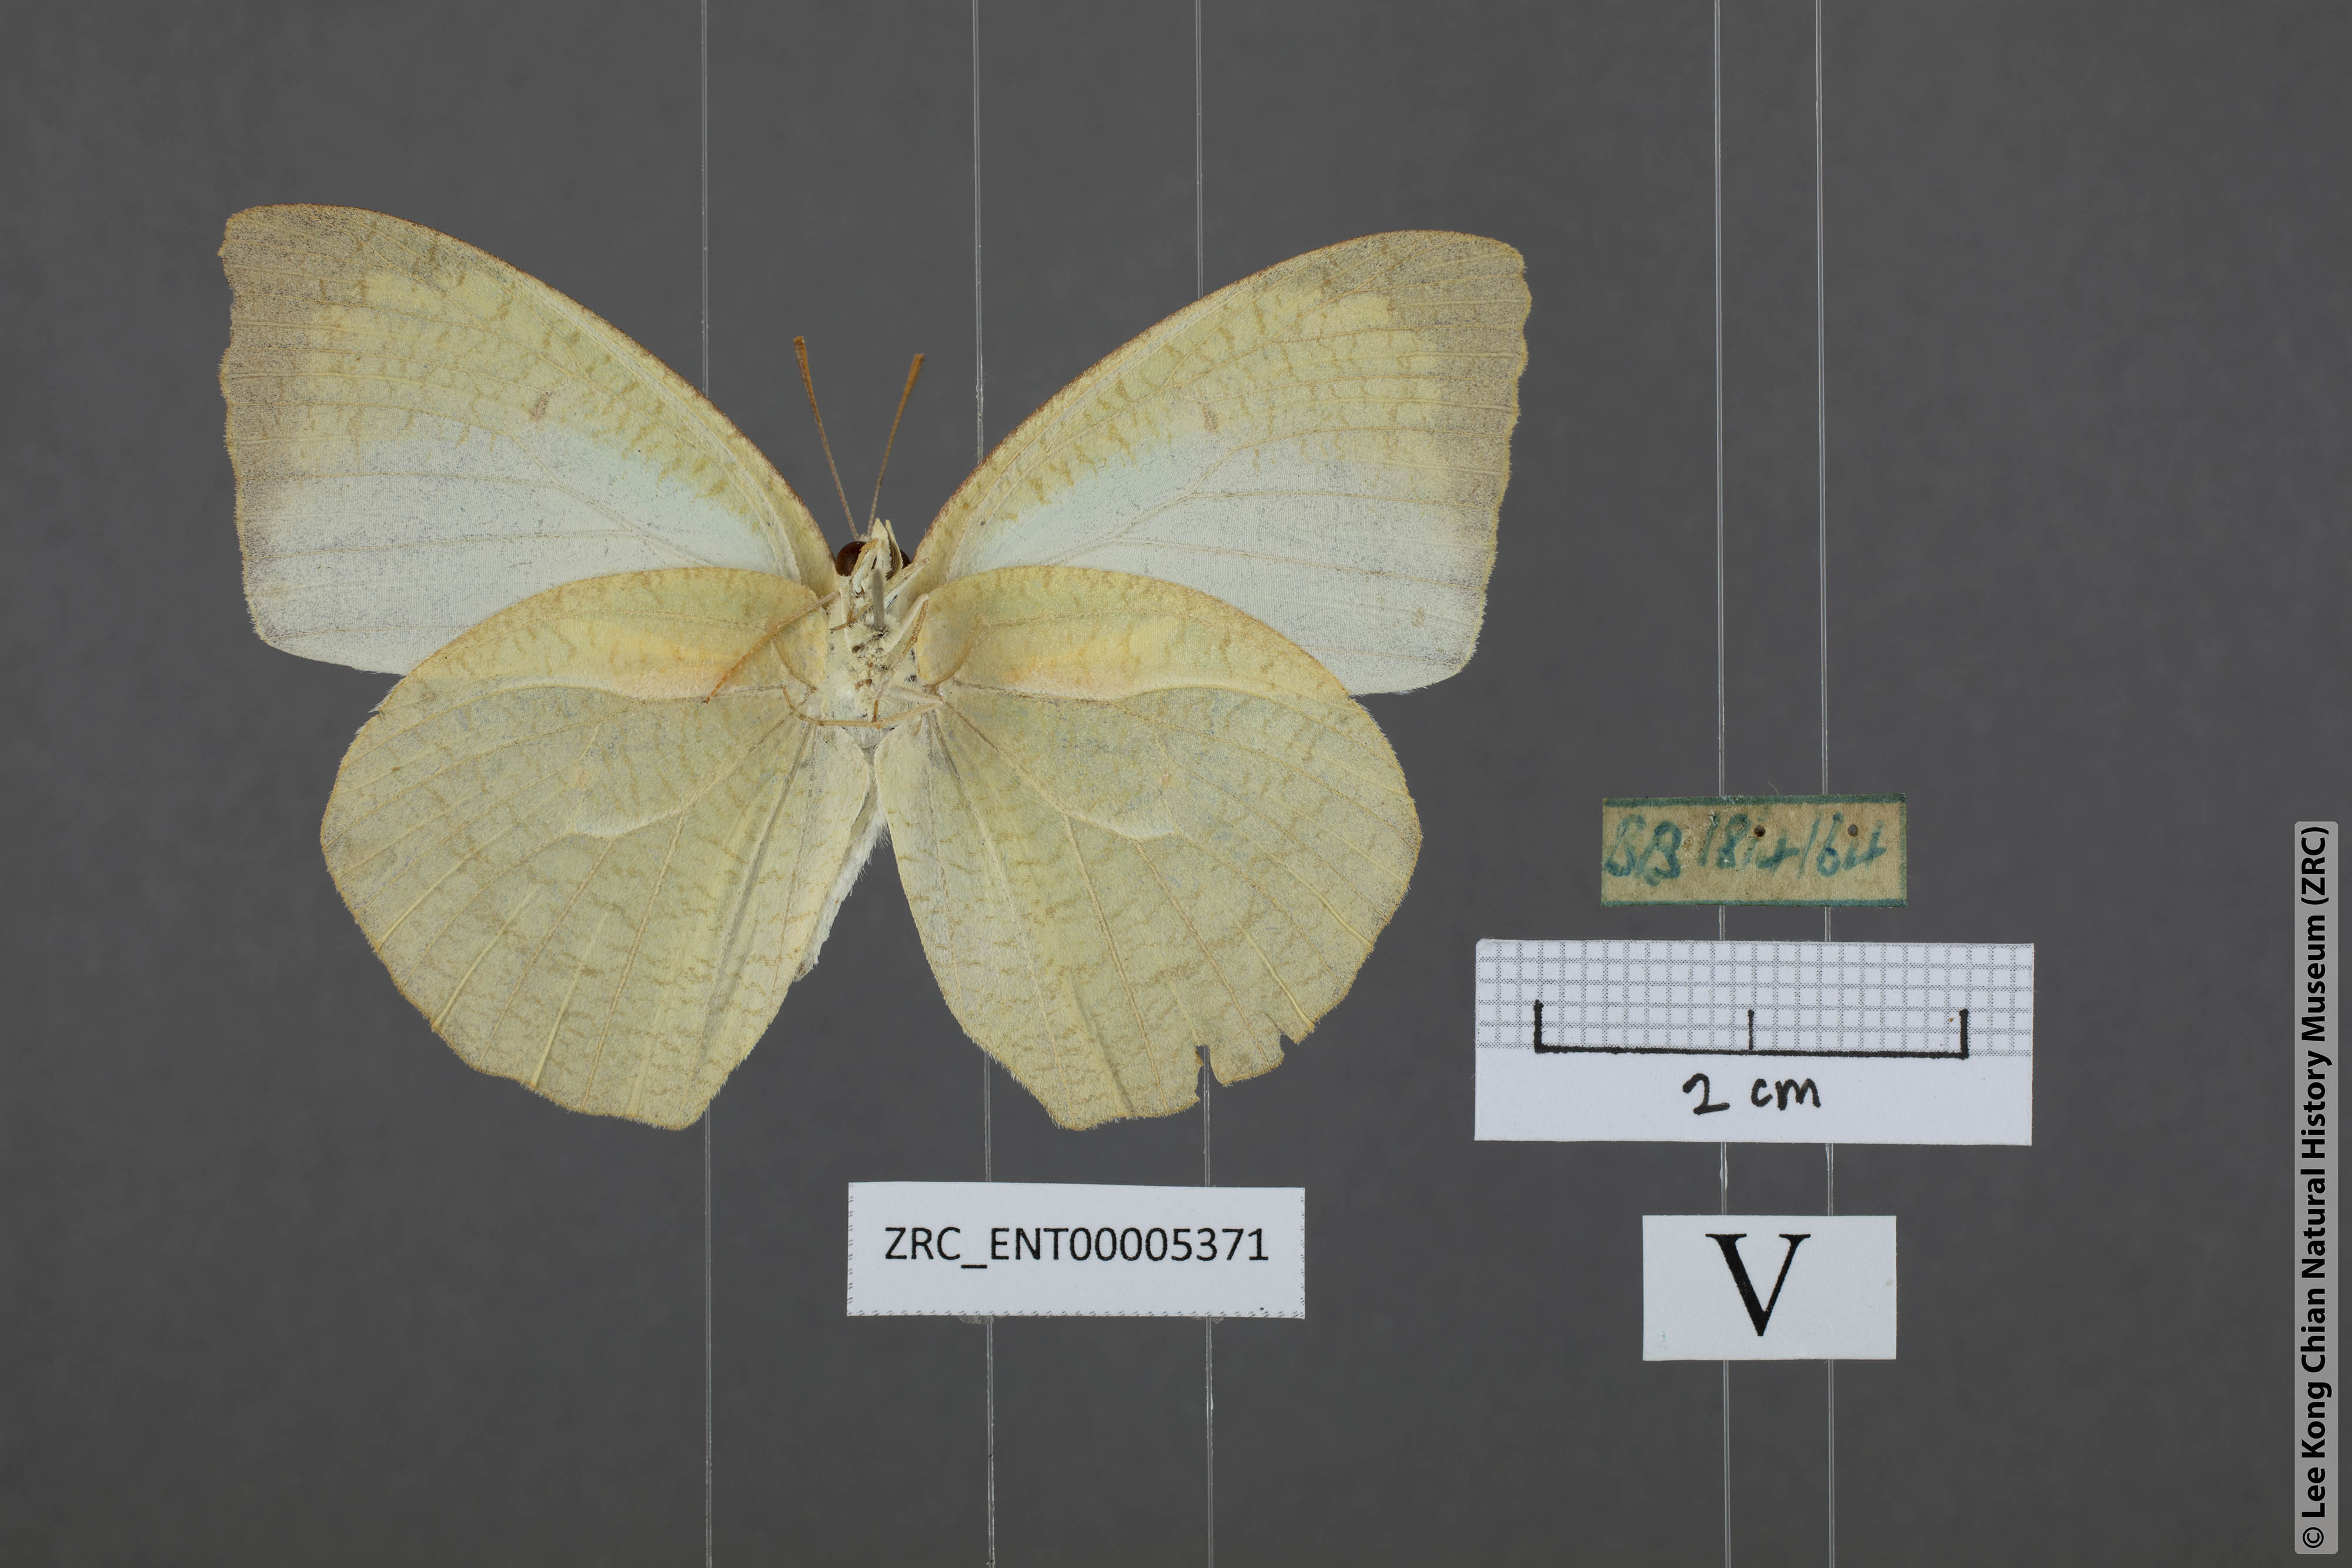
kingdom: Animalia
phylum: Arthropoda
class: Insecta
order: Lepidoptera
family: Pieridae
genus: Catopsilia
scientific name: Catopsilia pyranthe
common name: Mottled emigrant
